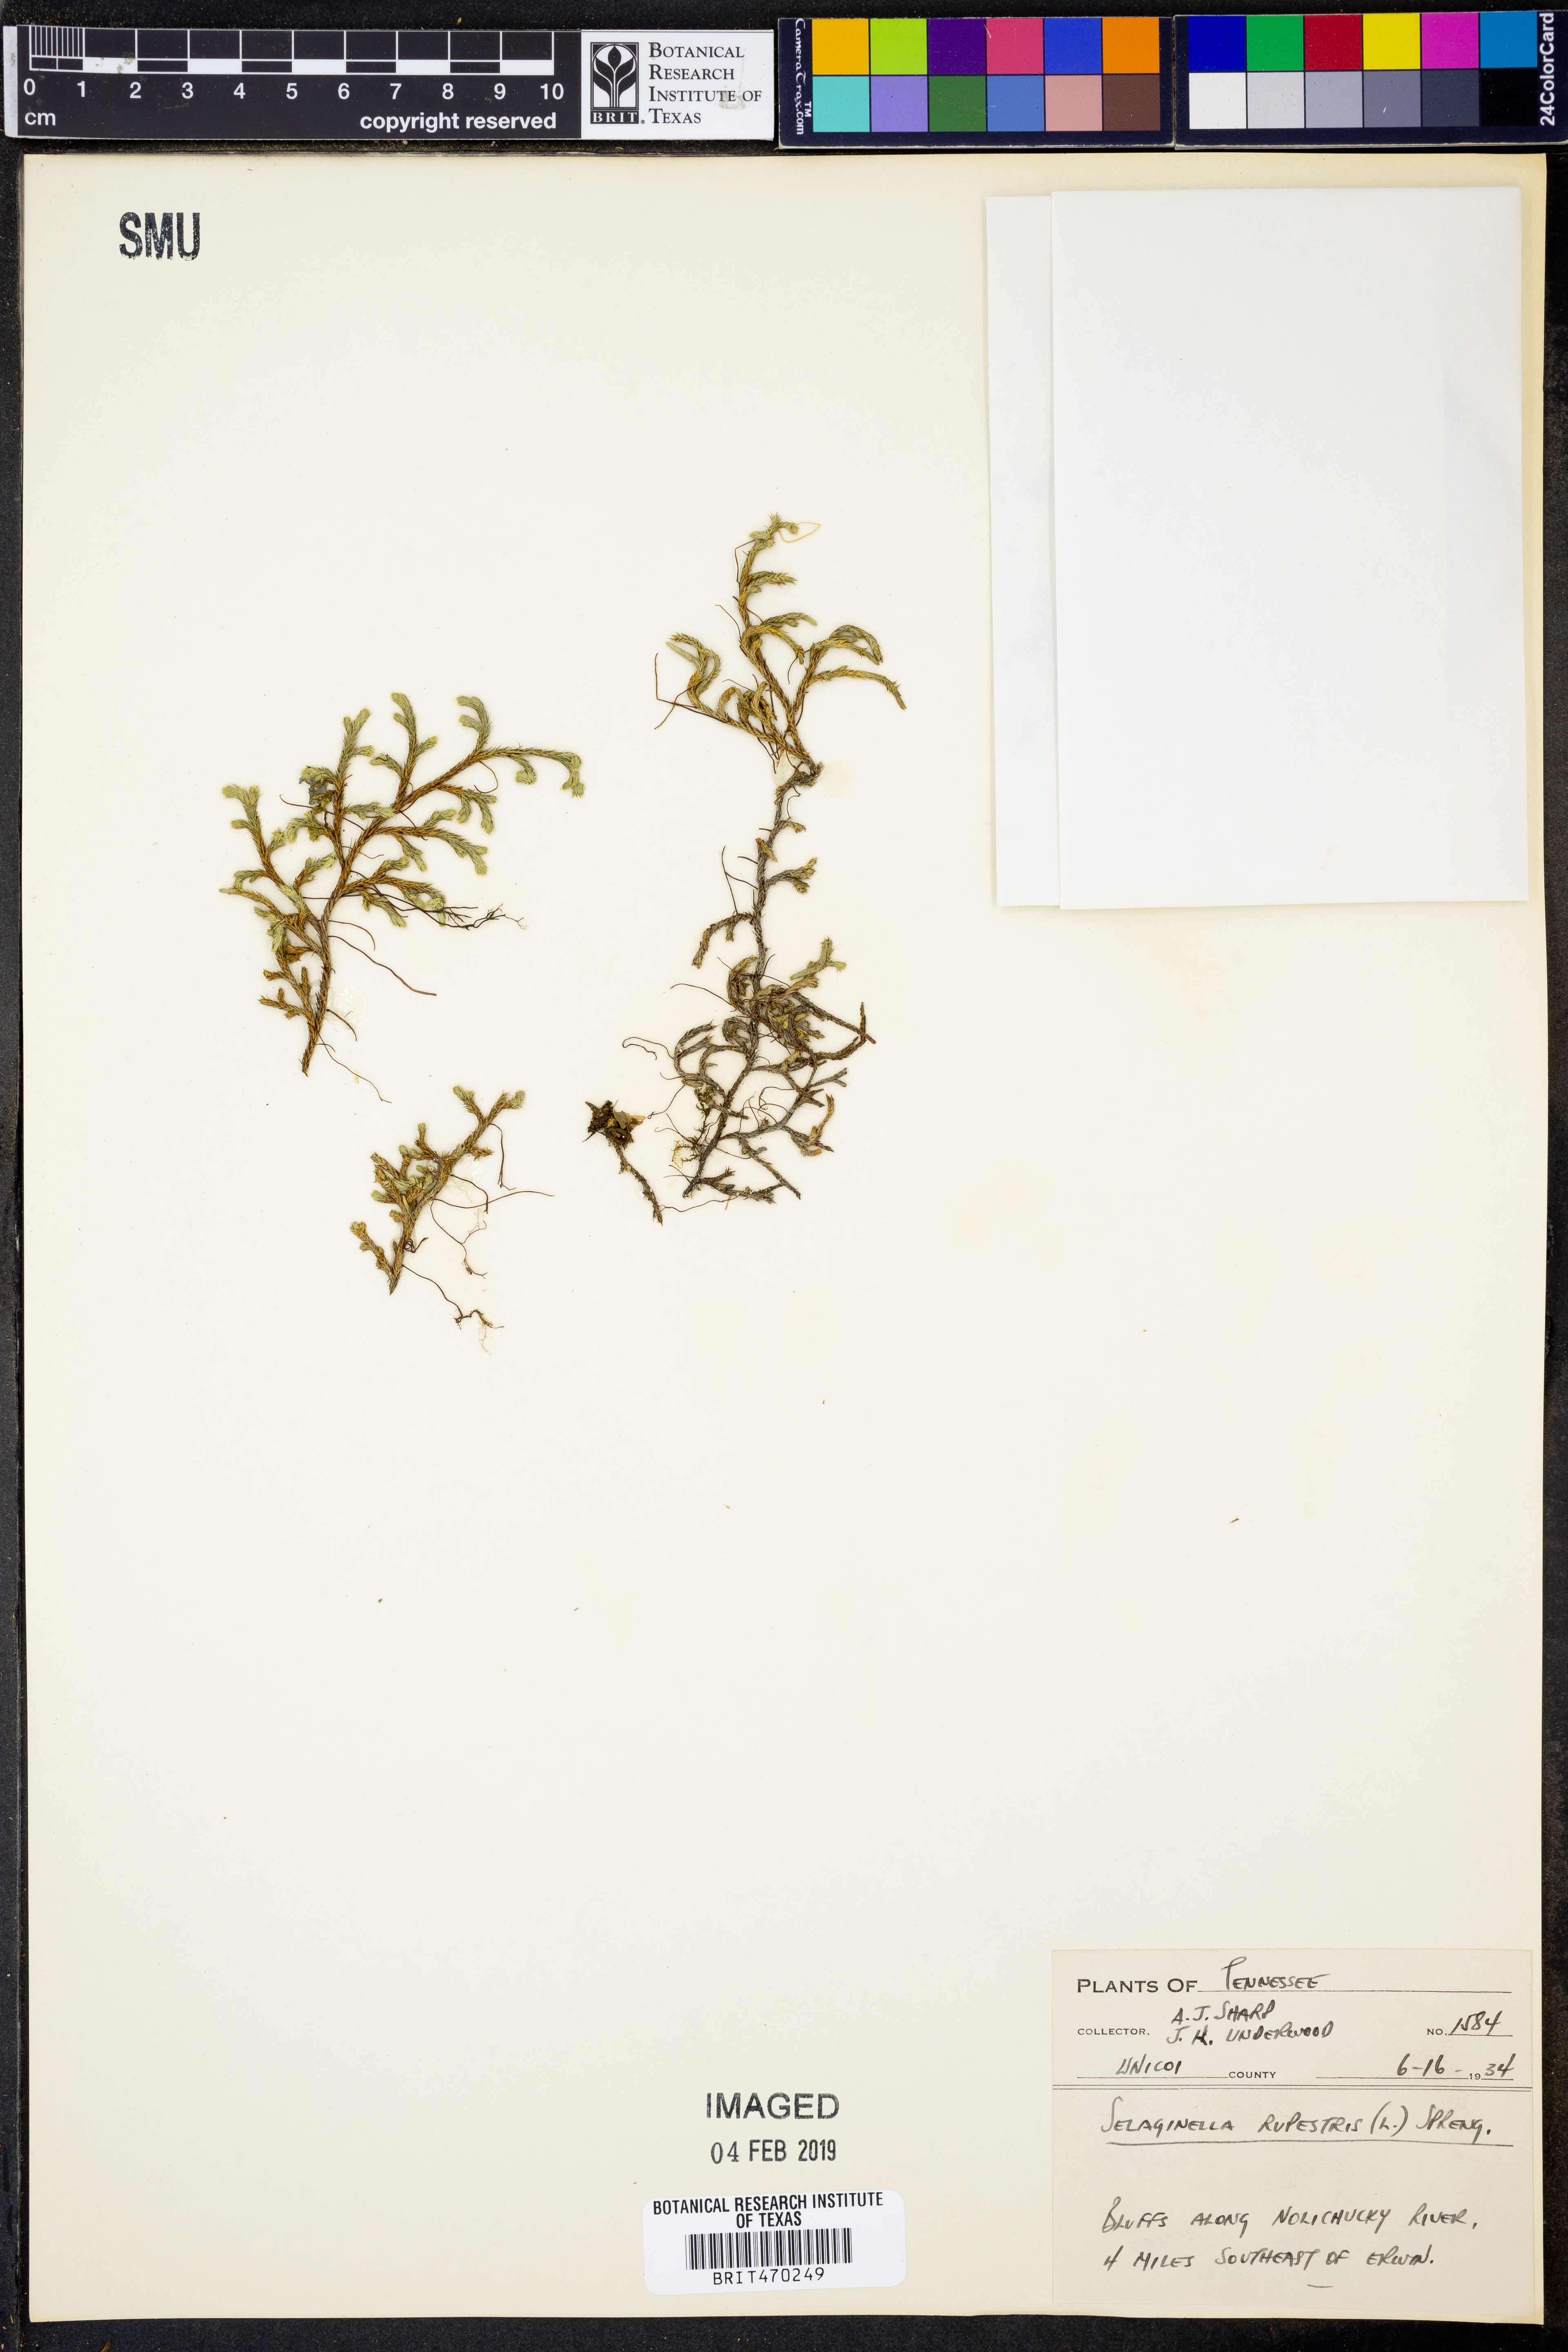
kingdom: Plantae
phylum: Tracheophyta
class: Lycopodiopsida
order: Selaginellales
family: Selaginellaceae
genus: Selaginella
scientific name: Selaginella rupestris
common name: Dwarf spikemoss
